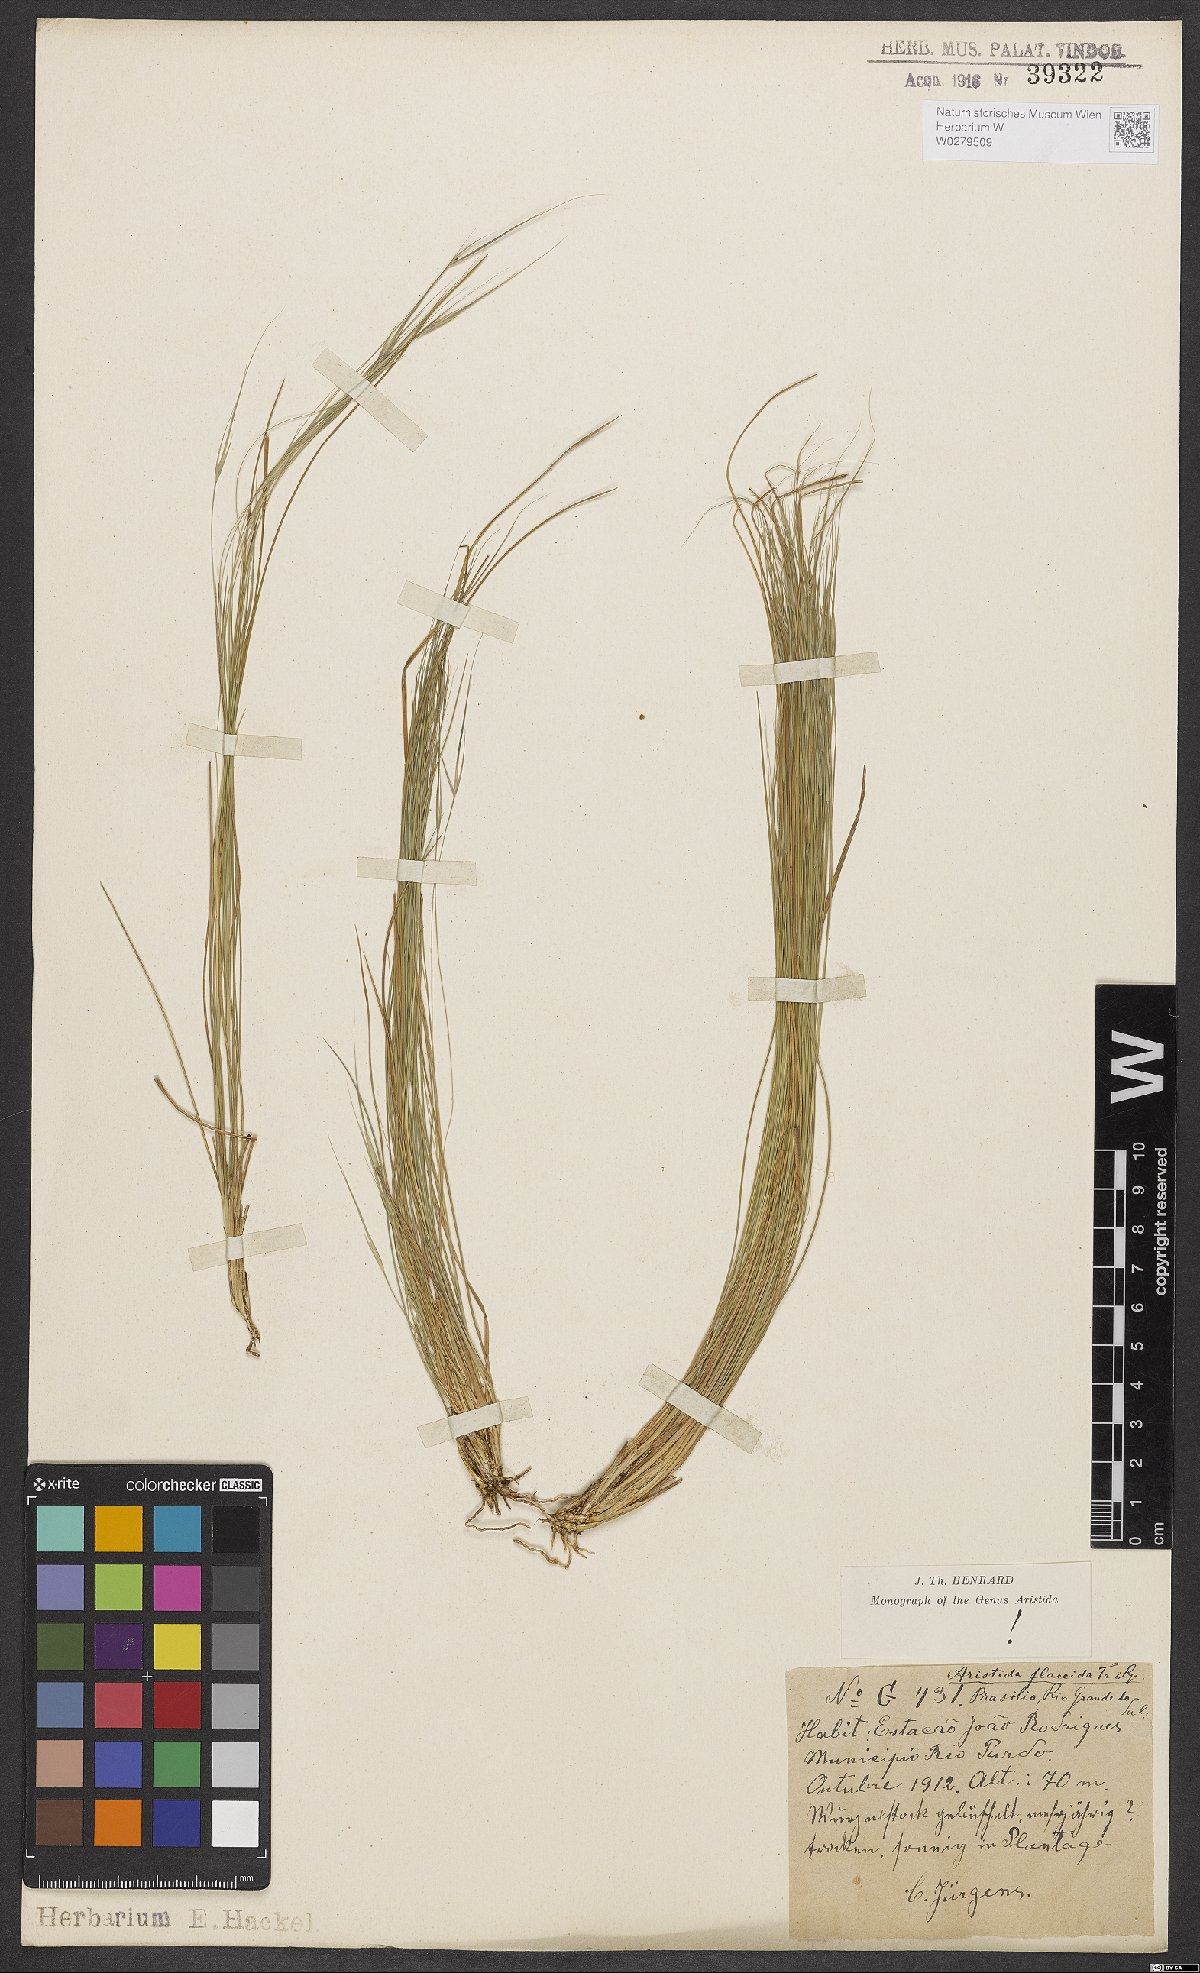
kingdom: Plantae
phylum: Tracheophyta
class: Liliopsida
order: Poales
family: Poaceae
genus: Aristida
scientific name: Aristida flaccida
